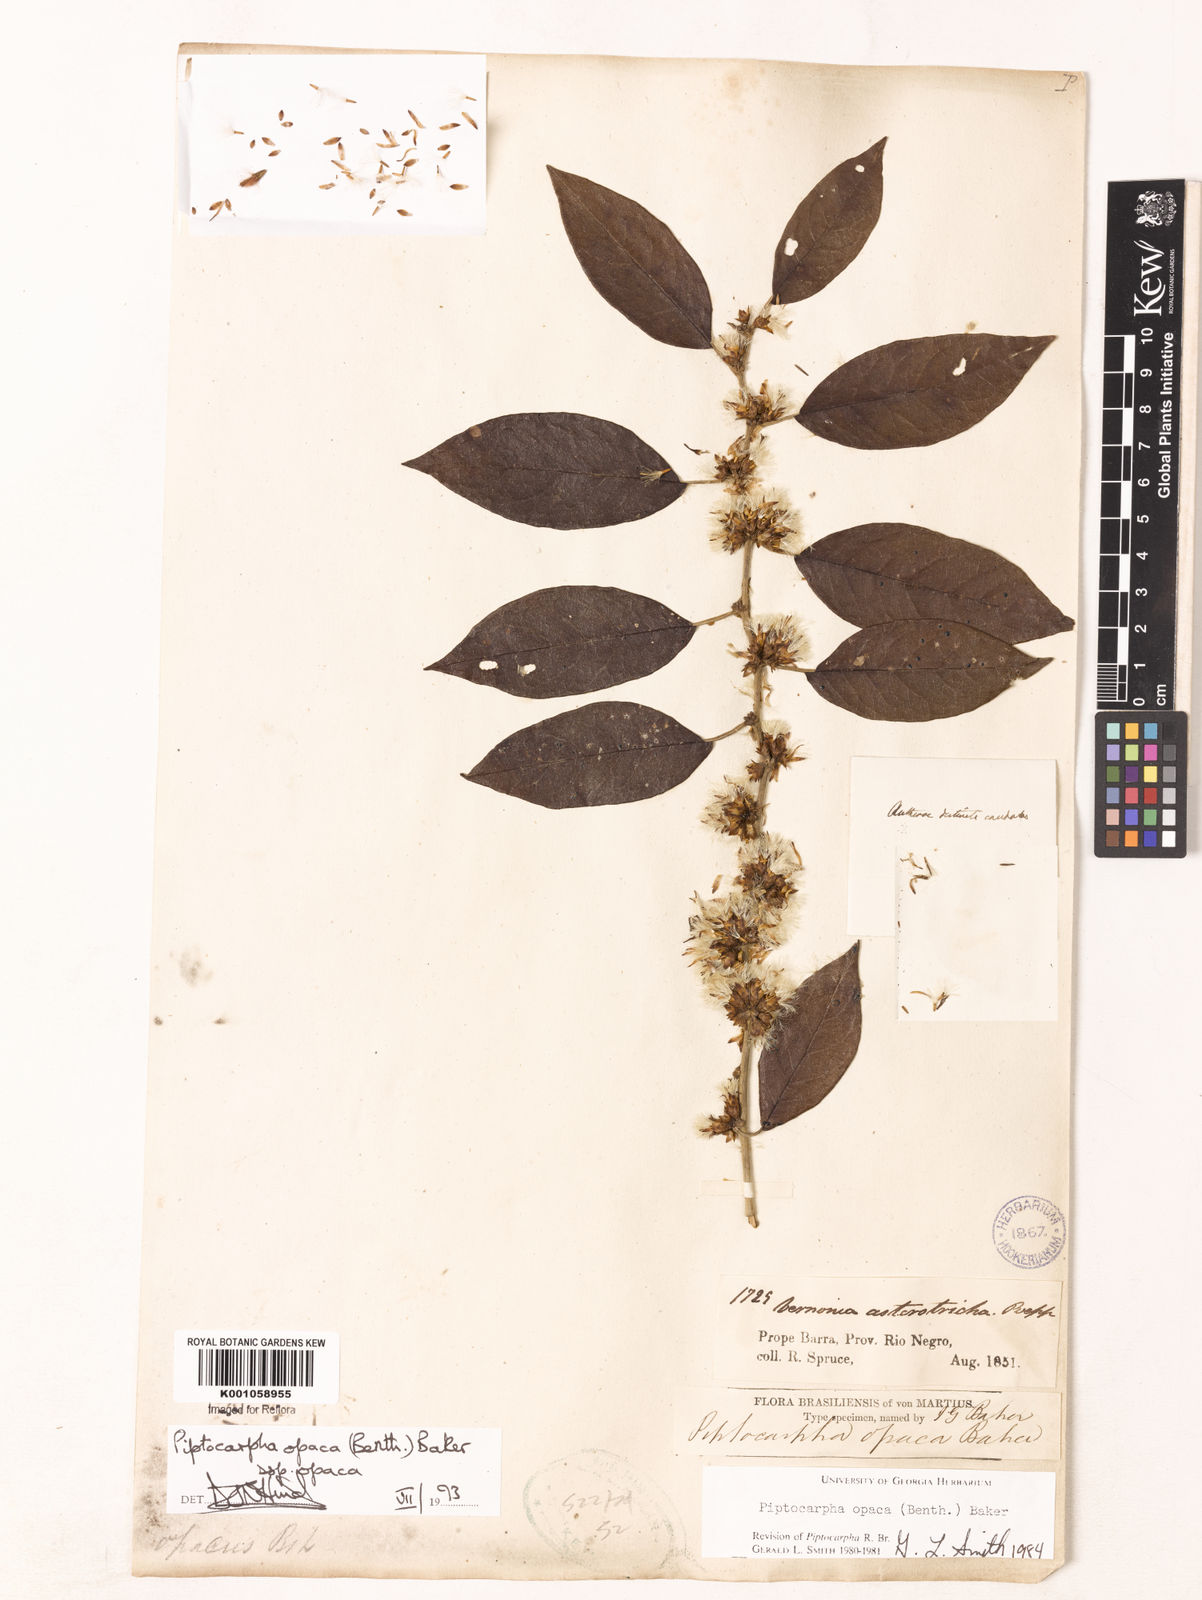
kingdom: Plantae
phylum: Tracheophyta
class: Magnoliopsida
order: Asterales
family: Asteraceae
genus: Piptocarpha
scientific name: Piptocarpha opaca
